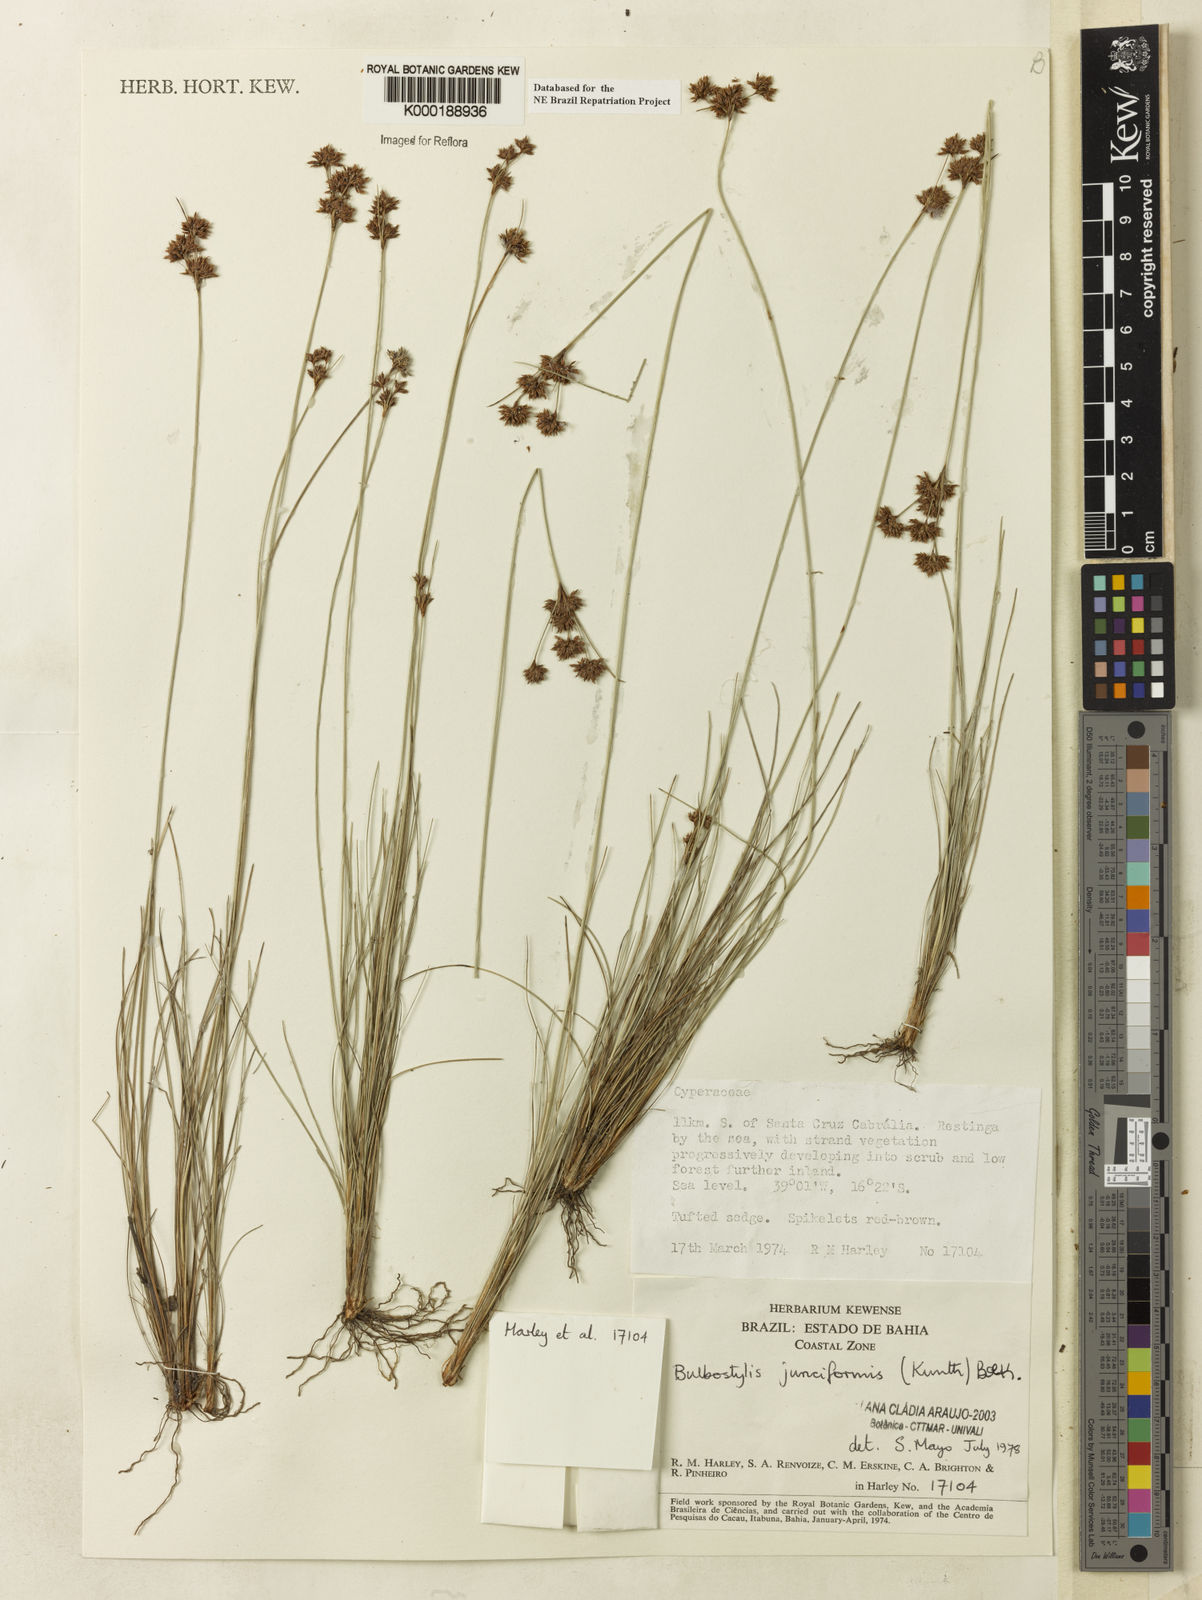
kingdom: Plantae
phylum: Tracheophyta
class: Liliopsida
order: Poales
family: Cyperaceae
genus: Bulbostylis
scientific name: Bulbostylis
